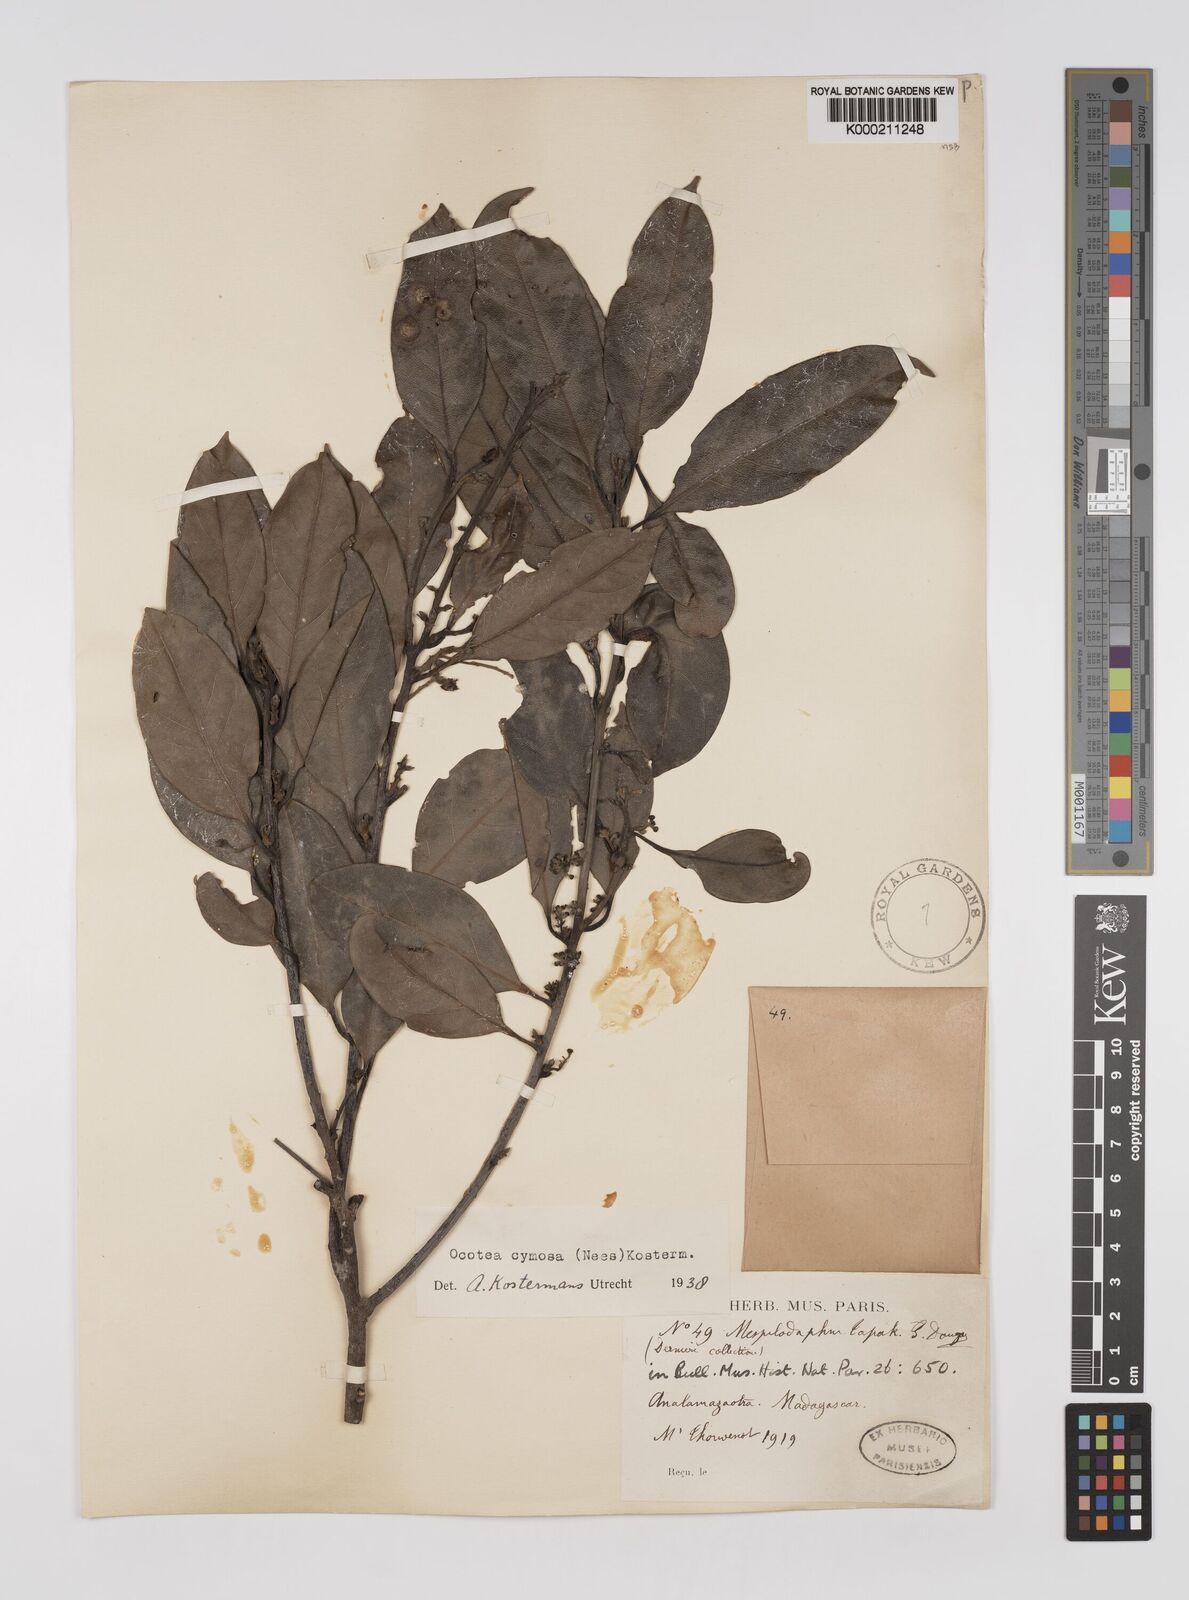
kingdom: Plantae
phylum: Tracheophyta
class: Magnoliopsida
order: Laurales
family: Lauraceae
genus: Mespilodaphne
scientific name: Mespilodaphne cymosa
